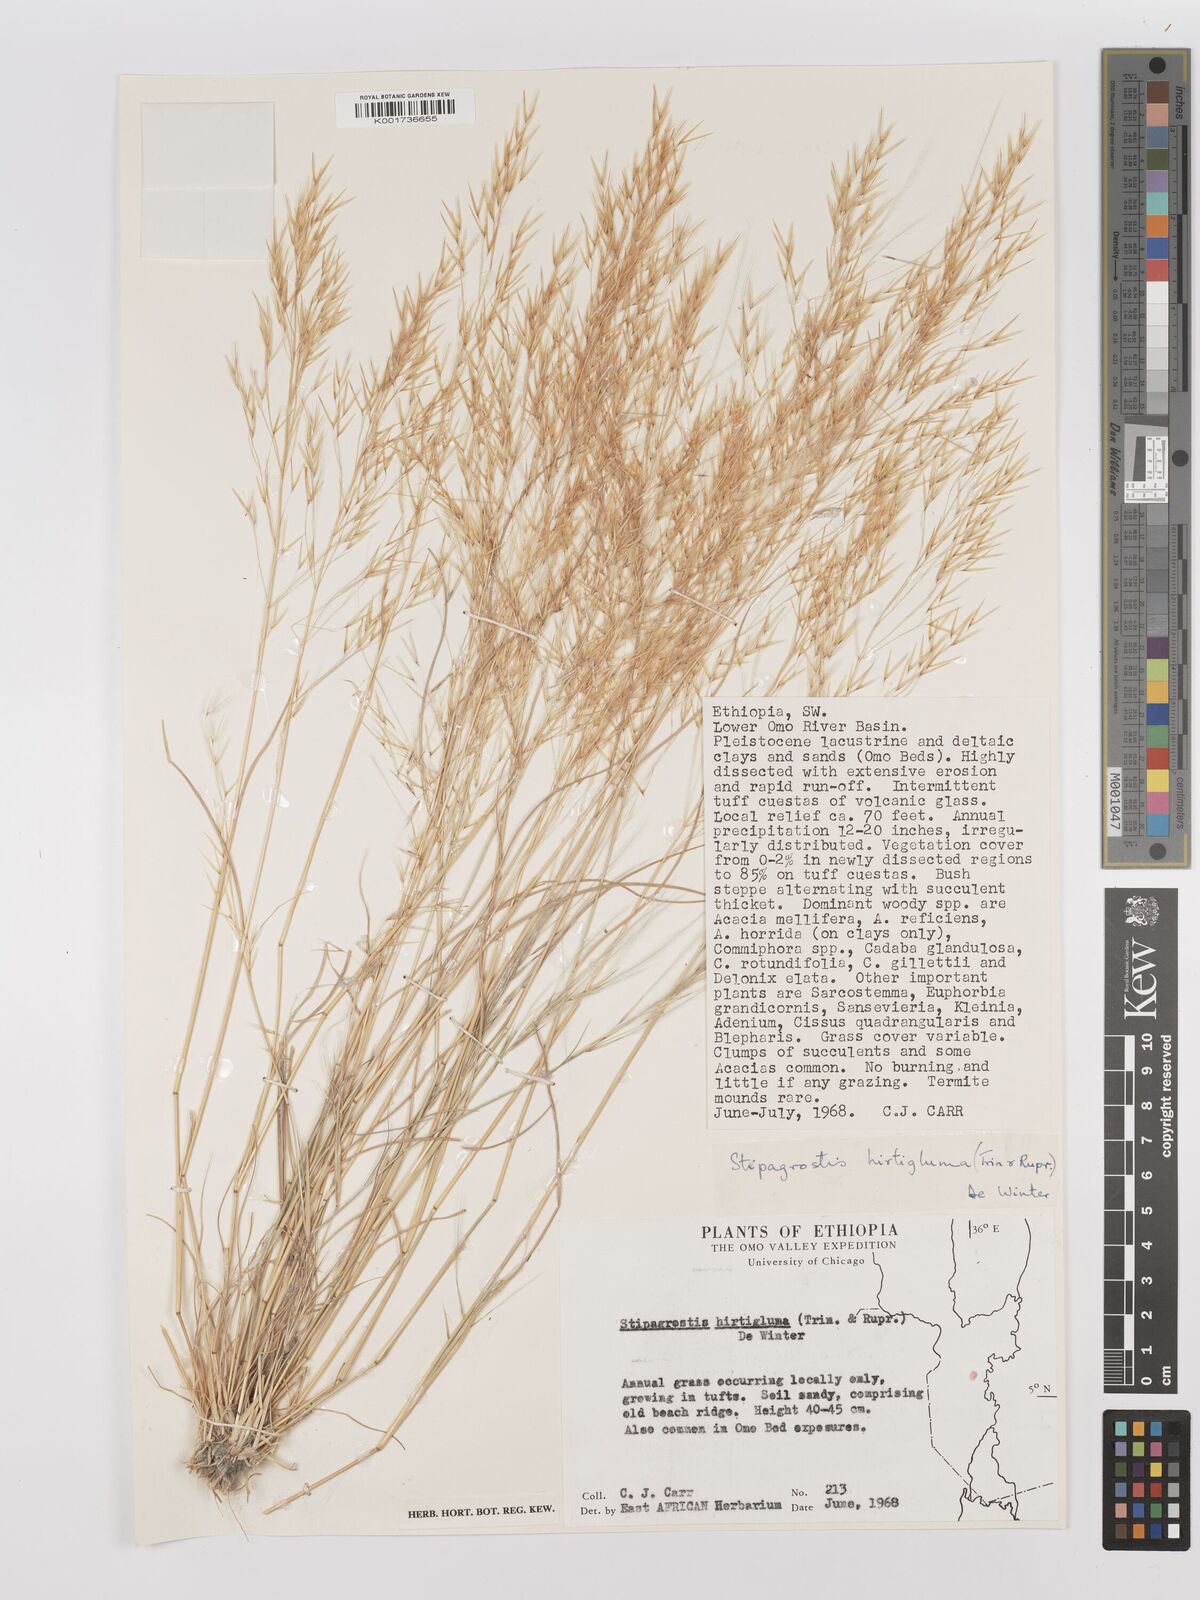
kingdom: Plantae
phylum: Tracheophyta
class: Liliopsida
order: Poales
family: Poaceae
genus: Stipagrostis
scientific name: Stipagrostis hirtigluma
